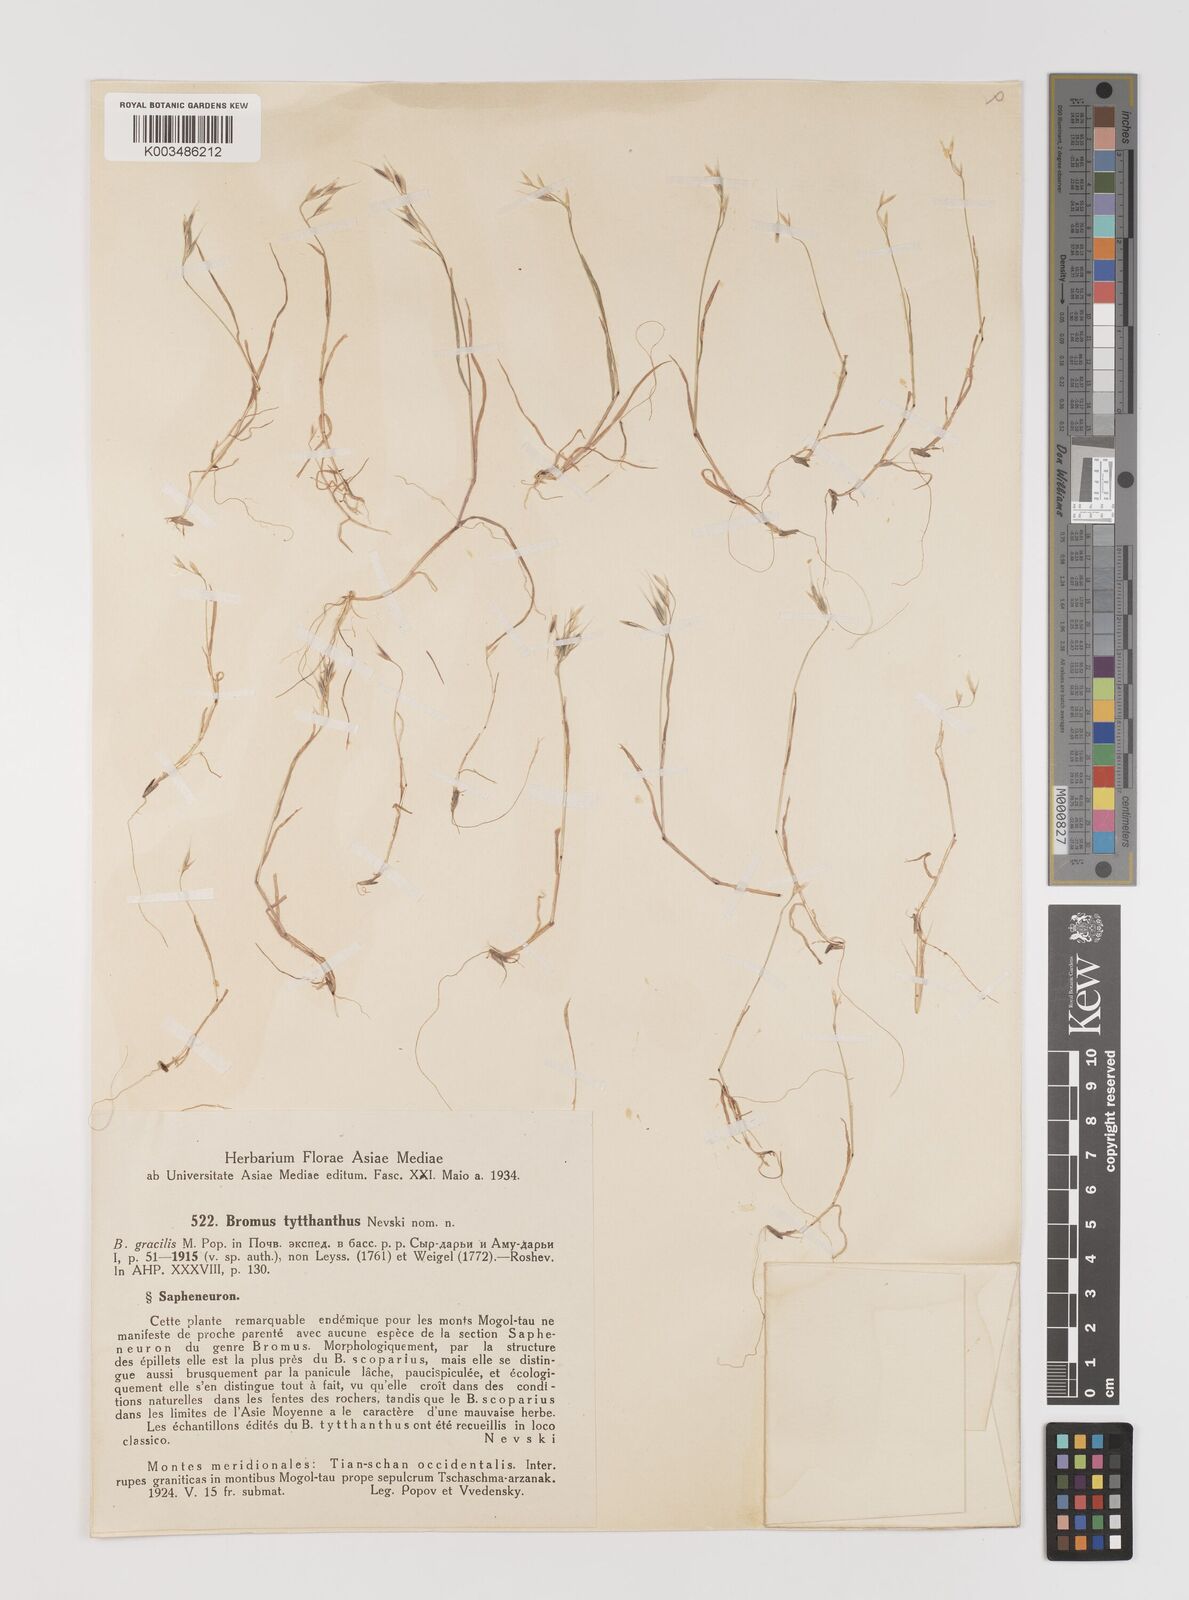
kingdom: Plantae
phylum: Tracheophyta
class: Liliopsida
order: Poales
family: Poaceae
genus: Bromus
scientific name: Bromus pulchellus
